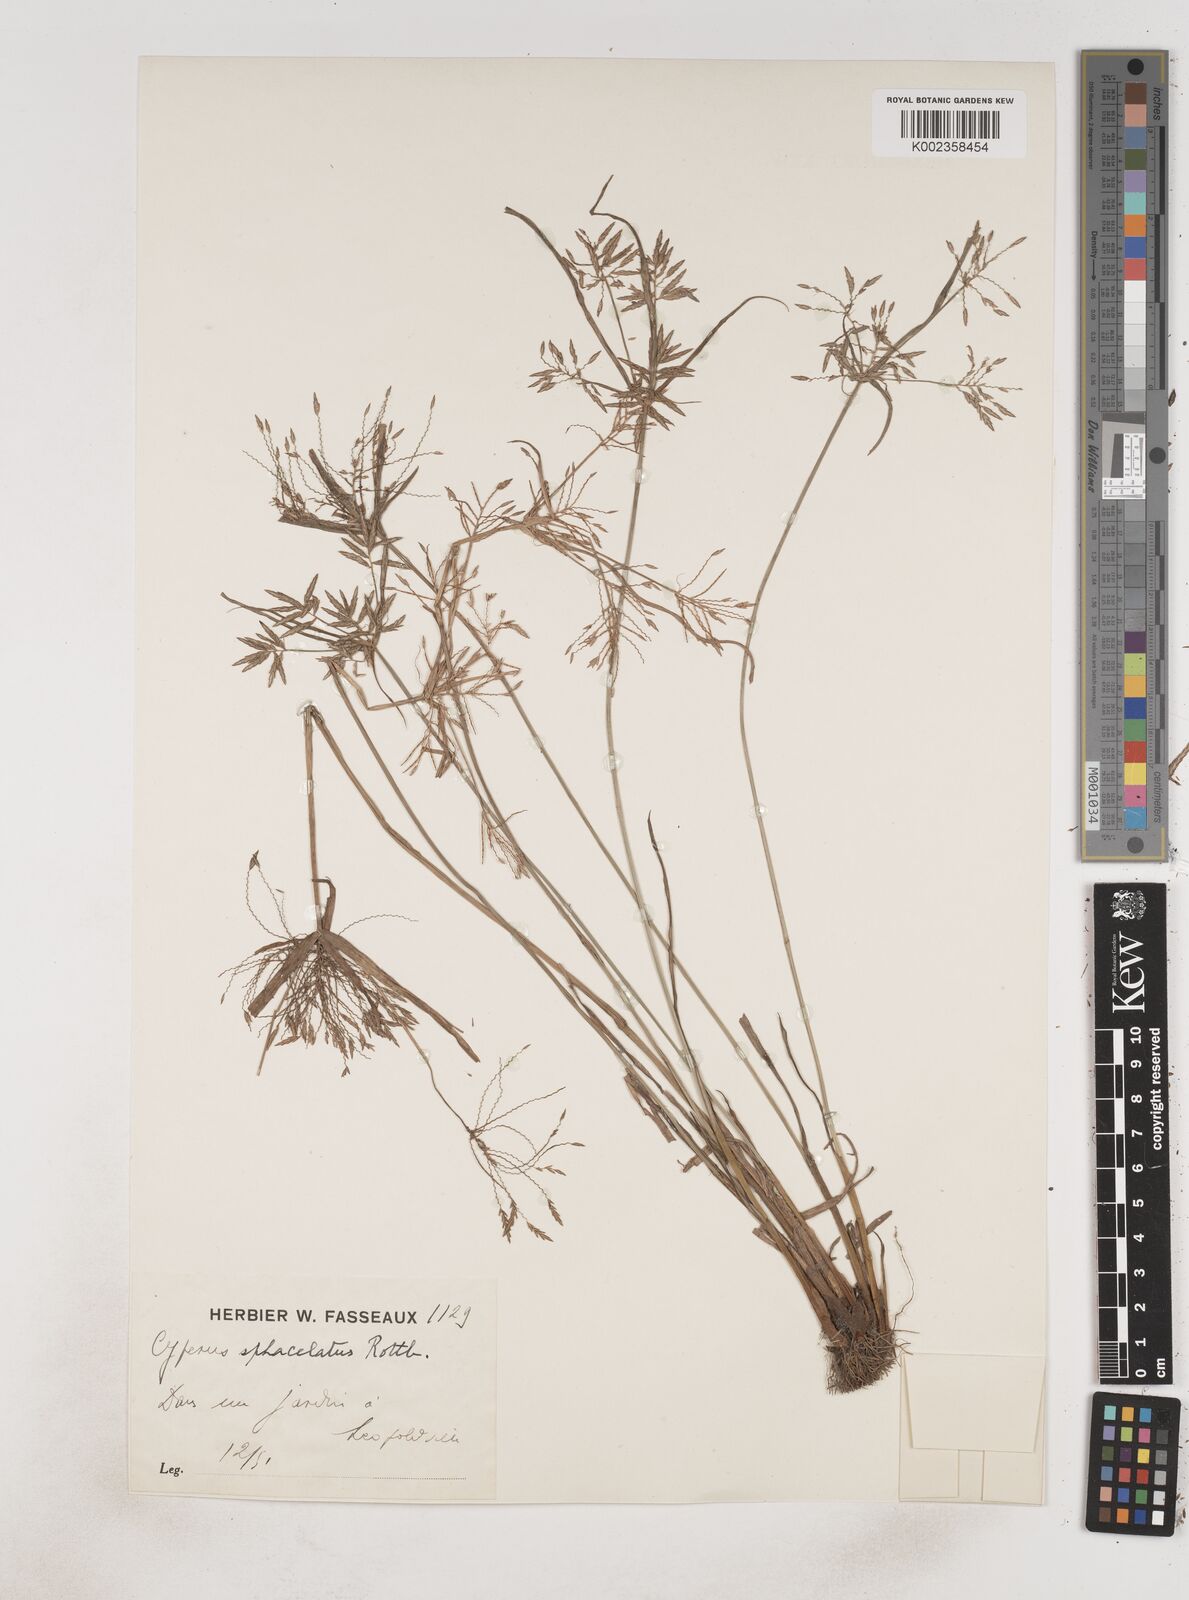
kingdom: Plantae
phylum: Tracheophyta
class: Liliopsida
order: Poales
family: Cyperaceae
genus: Cyperus
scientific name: Cyperus sphacelatus
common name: Roadside flatsedge
